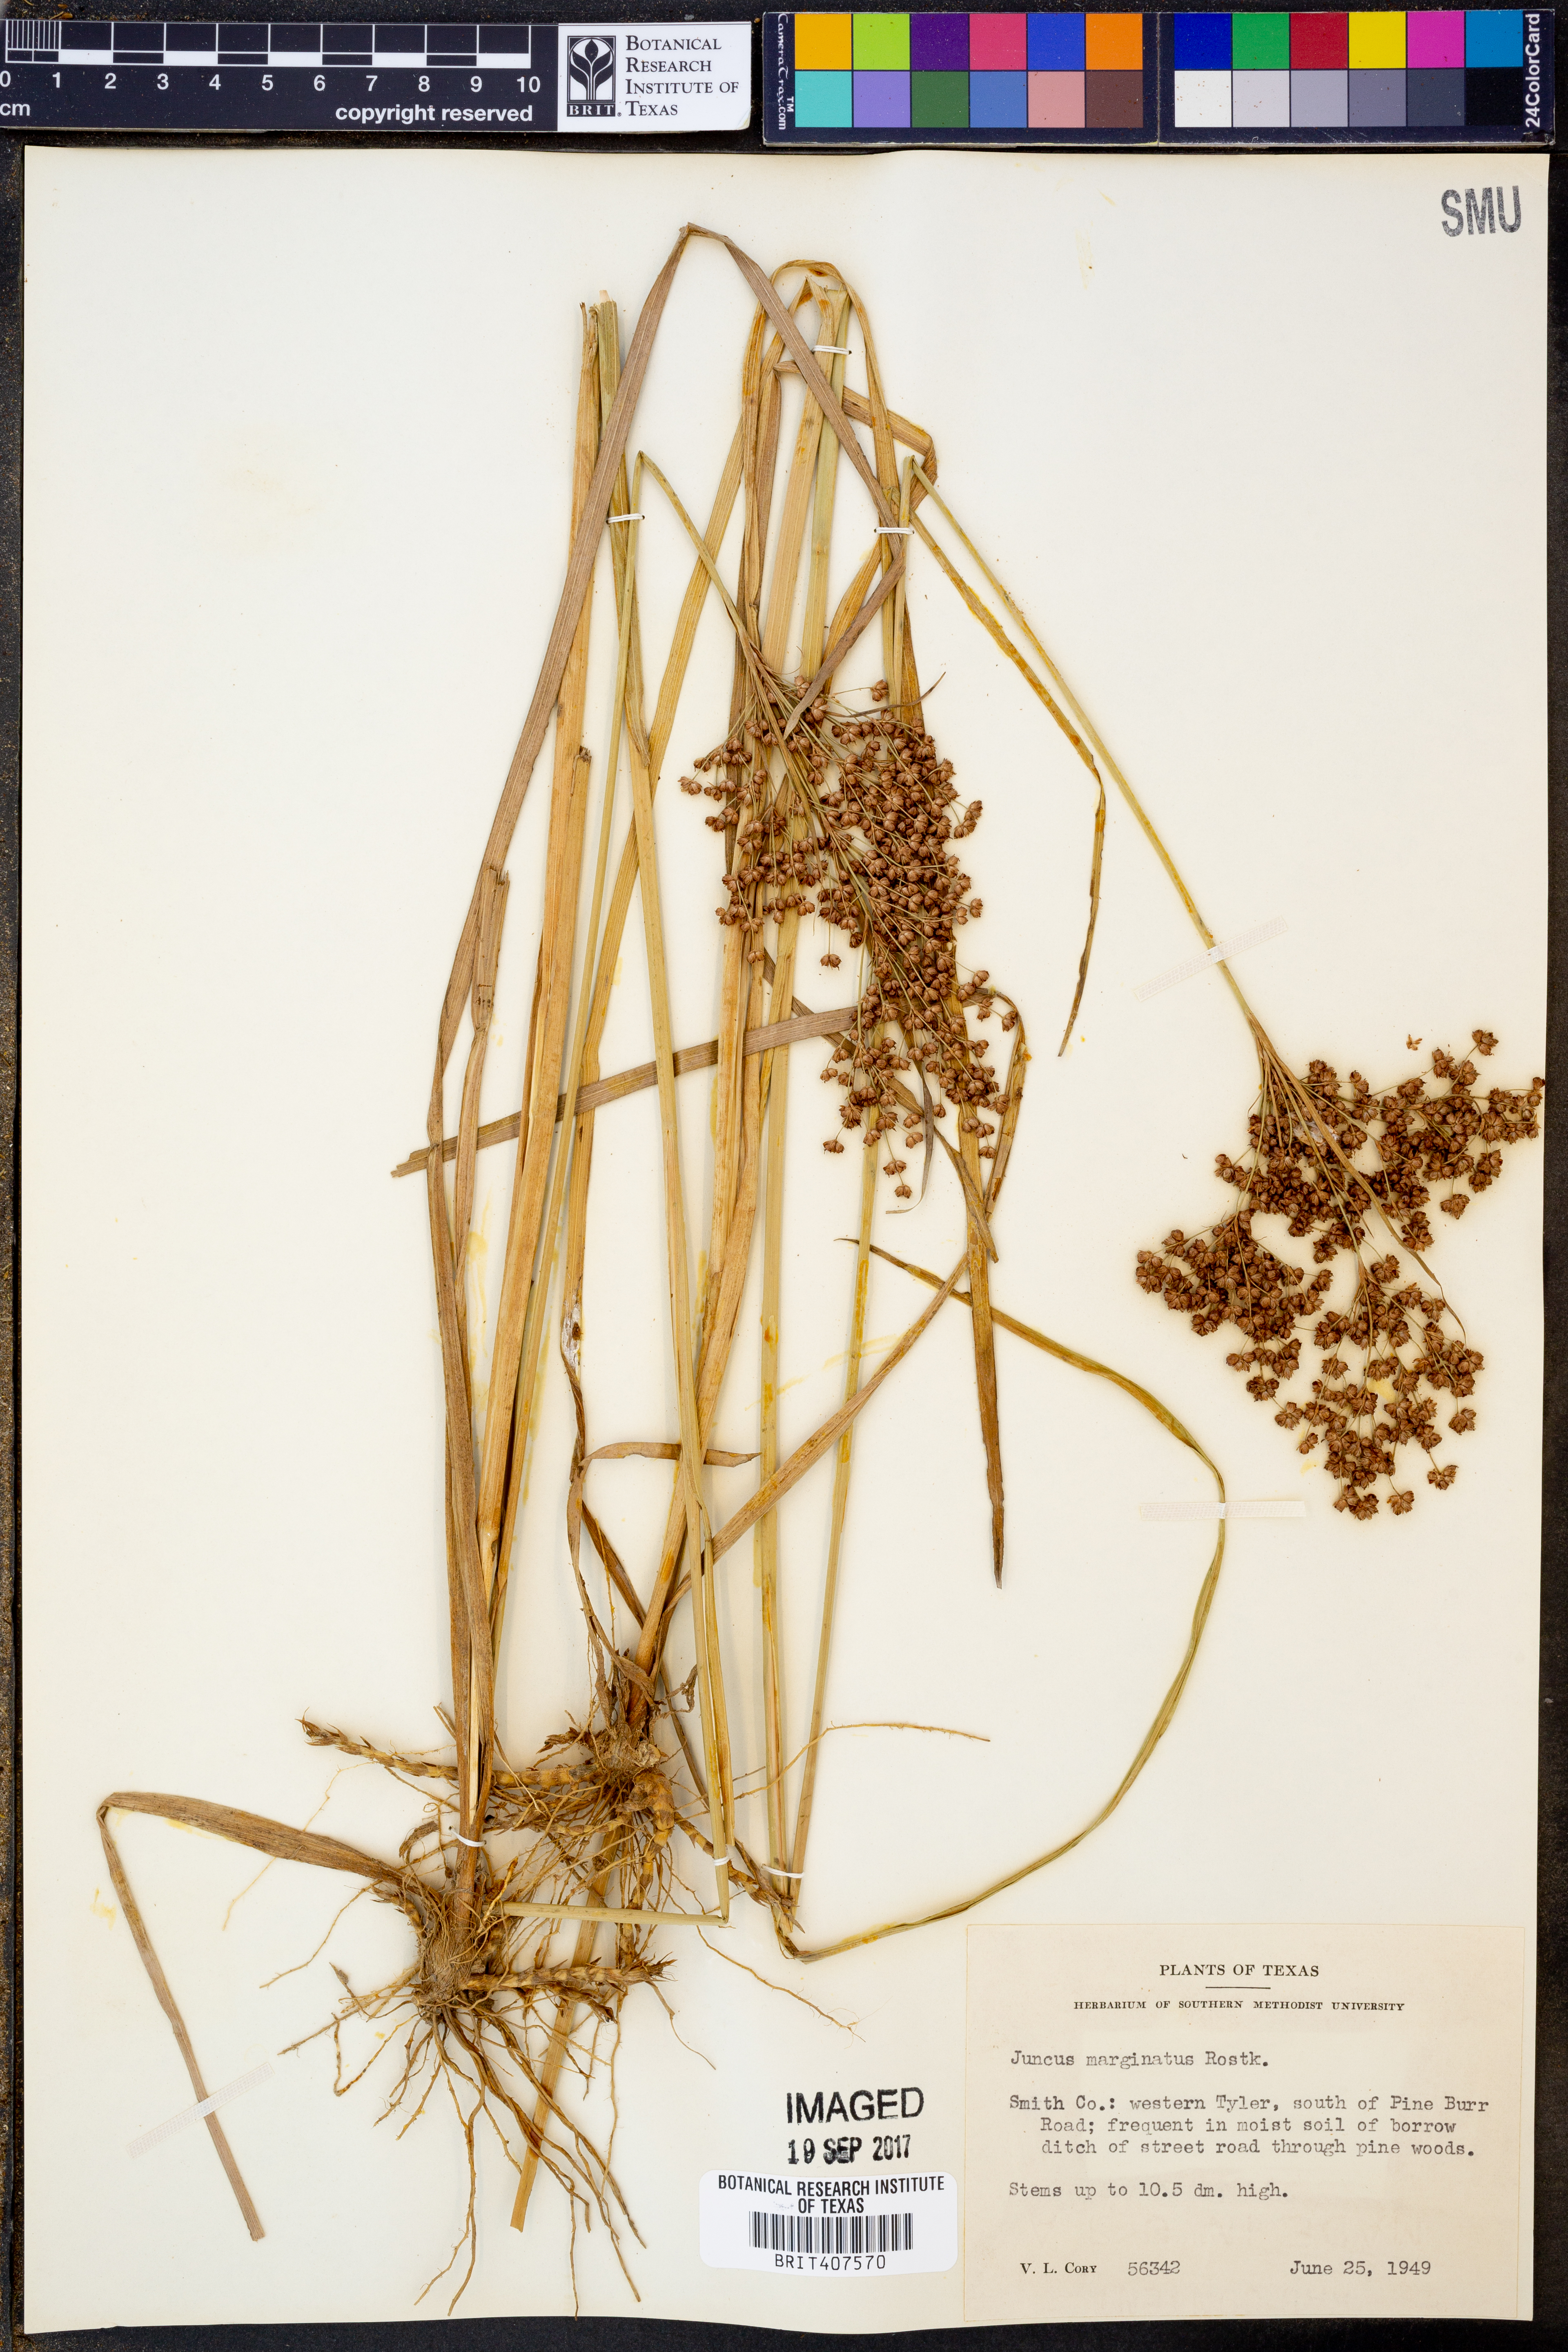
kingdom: Plantae
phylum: Tracheophyta
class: Liliopsida
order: Poales
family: Juncaceae
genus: Juncus
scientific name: Juncus marginatus
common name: Grass-leaf rush
